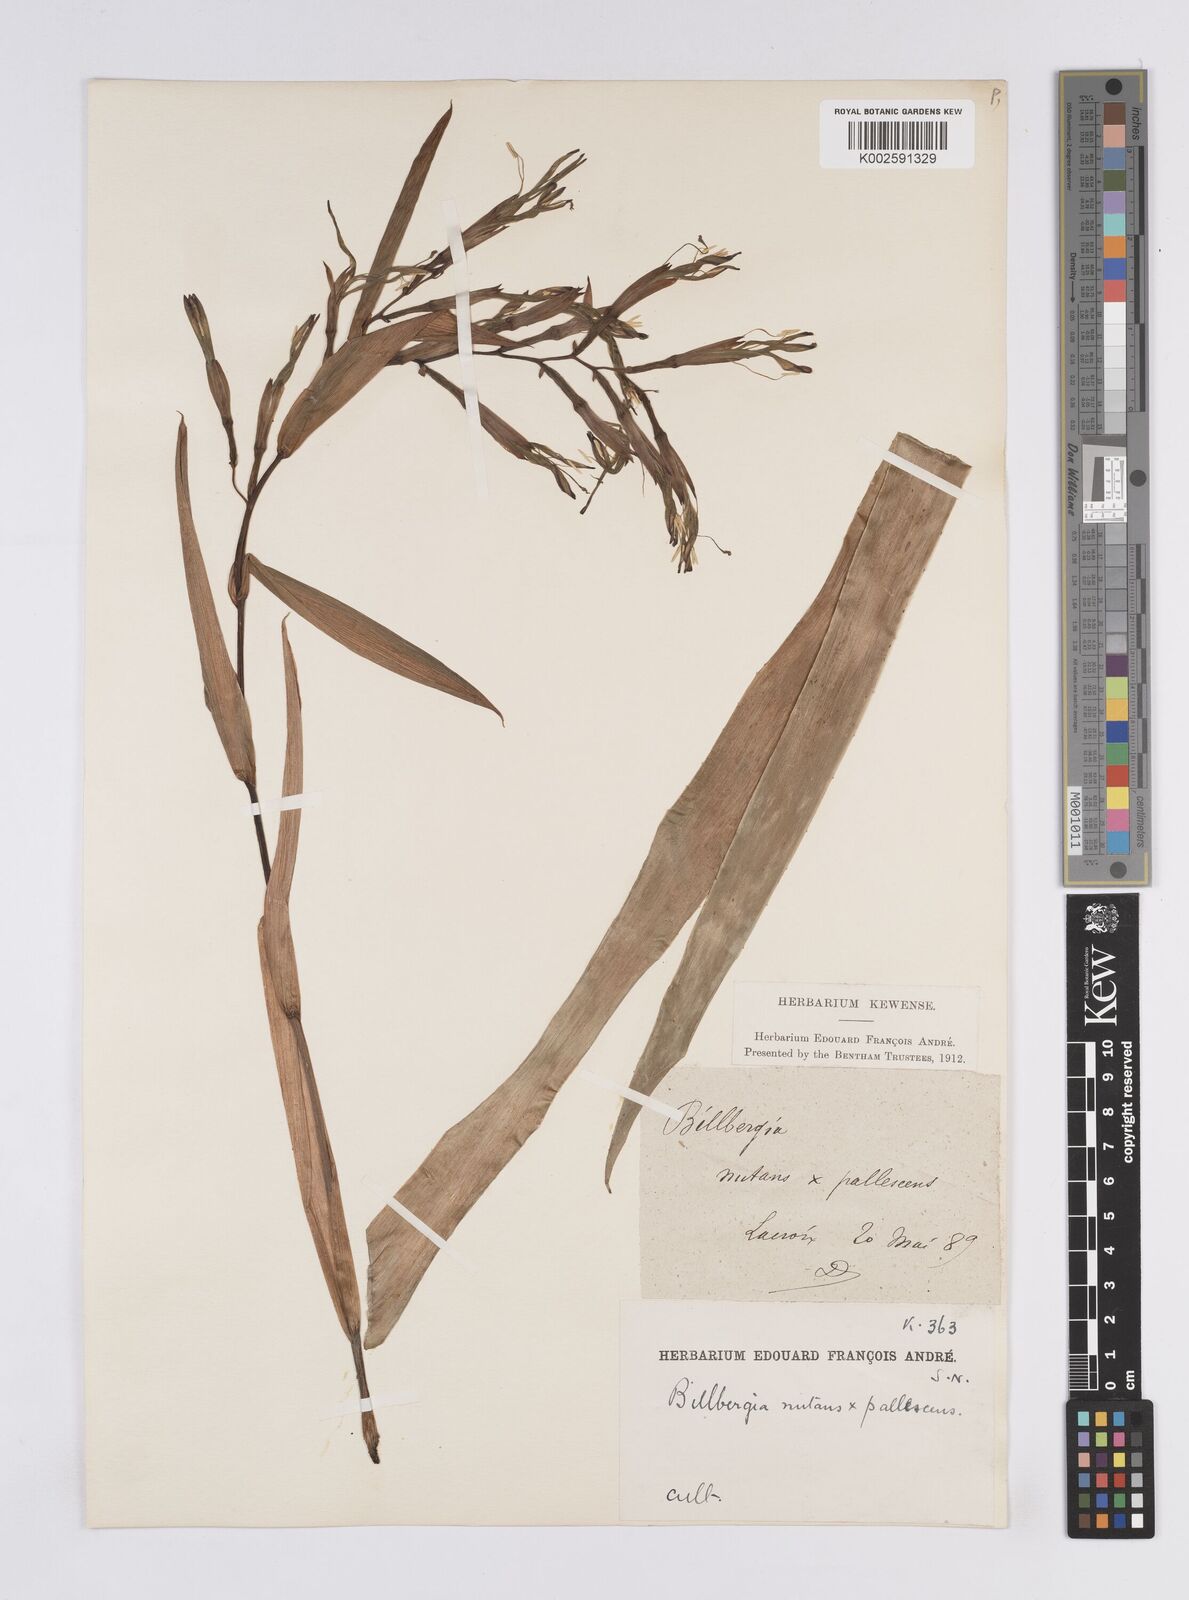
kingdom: Plantae
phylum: Tracheophyta
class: Liliopsida
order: Poales
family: Bromeliaceae
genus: Billbergia
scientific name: Billbergia nutans
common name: Friendship-plant
